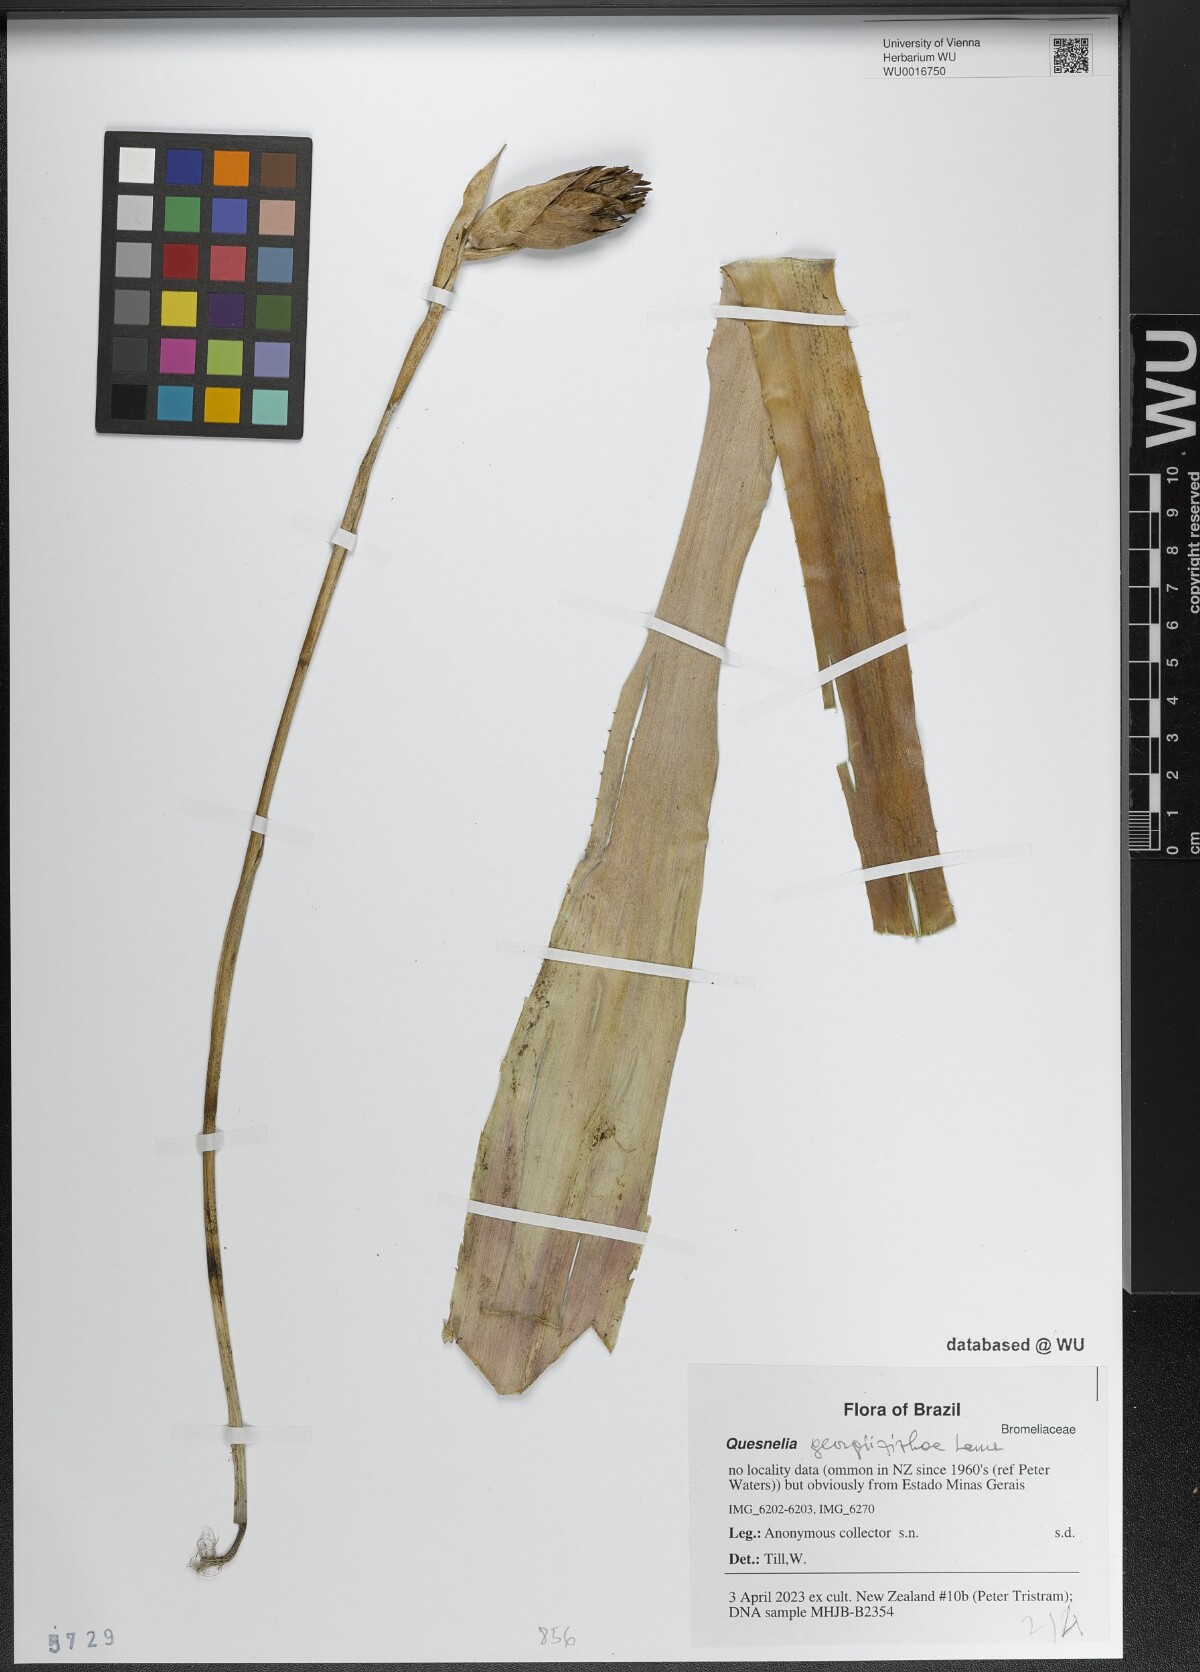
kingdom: Plantae
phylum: Tracheophyta
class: Liliopsida
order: Poales
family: Bromeliaceae
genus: Quesnelia
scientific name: Quesnelia
